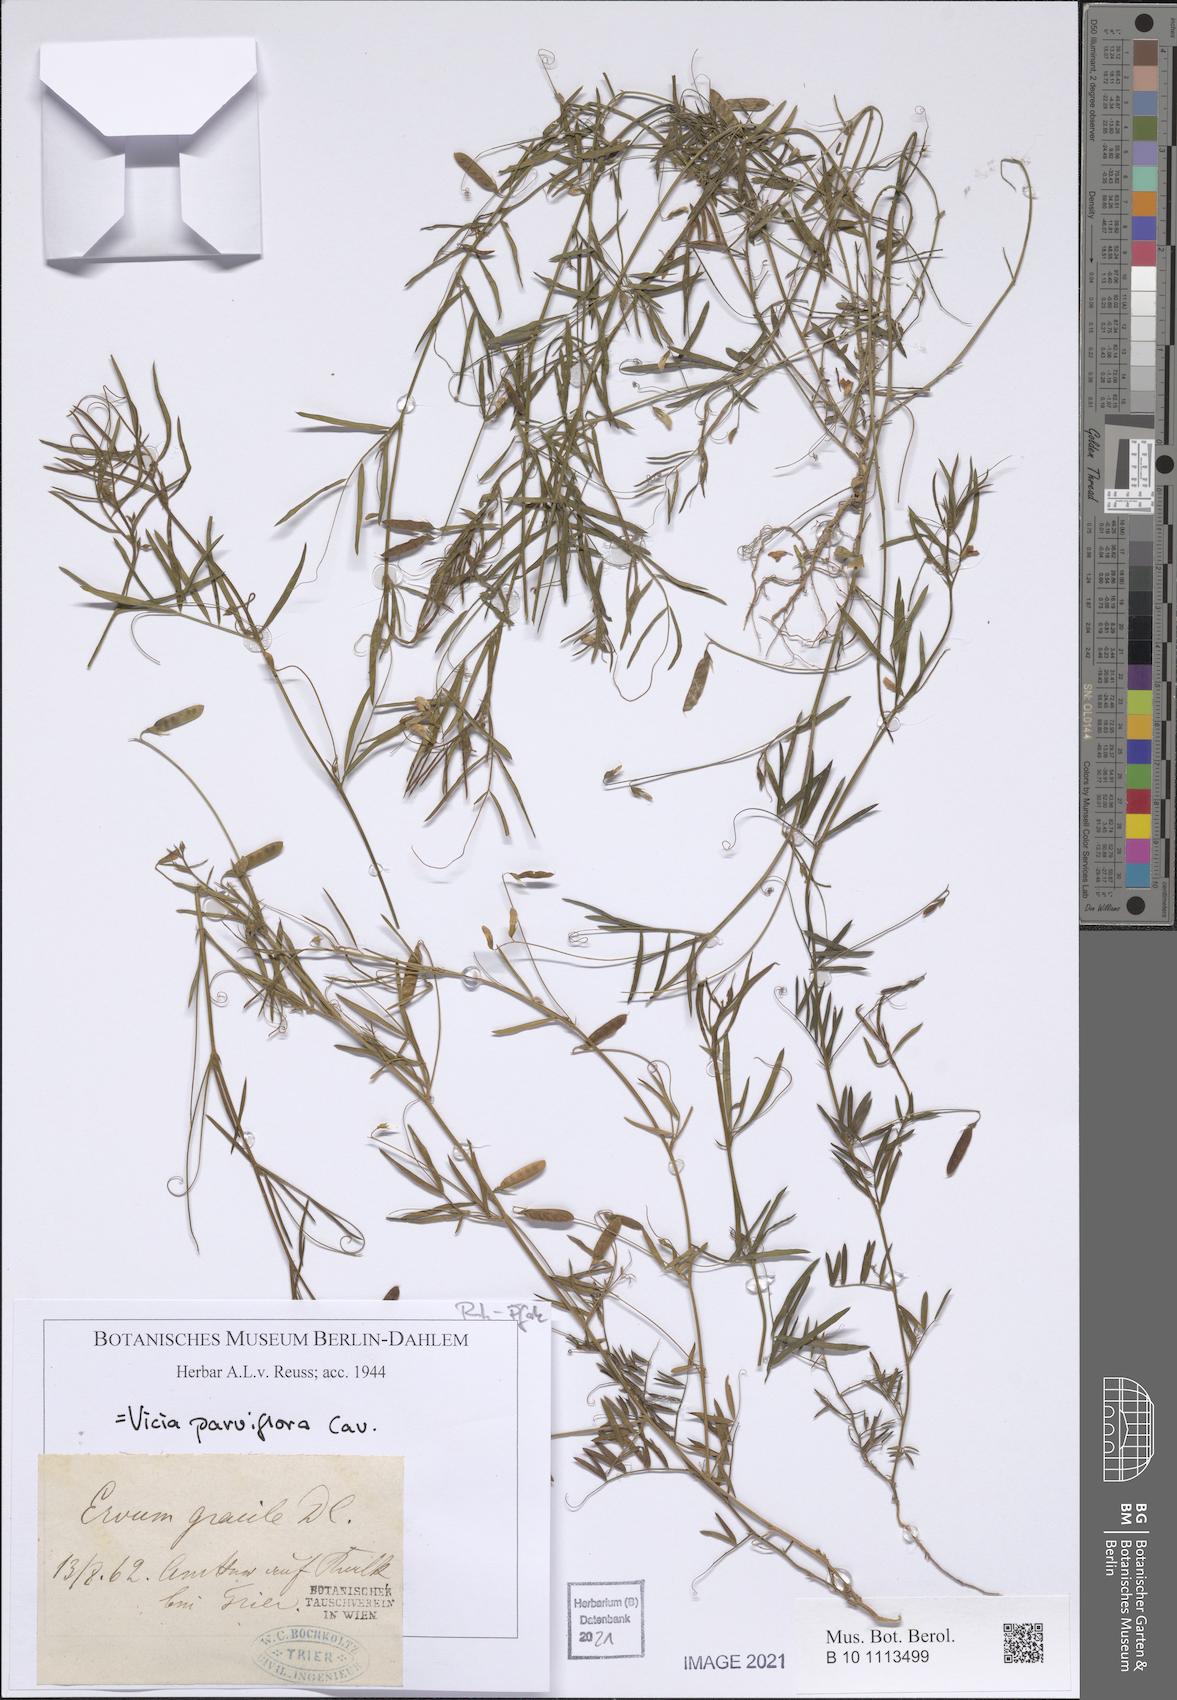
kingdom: Plantae
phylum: Tracheophyta
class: Magnoliopsida
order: Fabales
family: Fabaceae
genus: Vicia
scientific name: Vicia parviflora
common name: Slender tare
